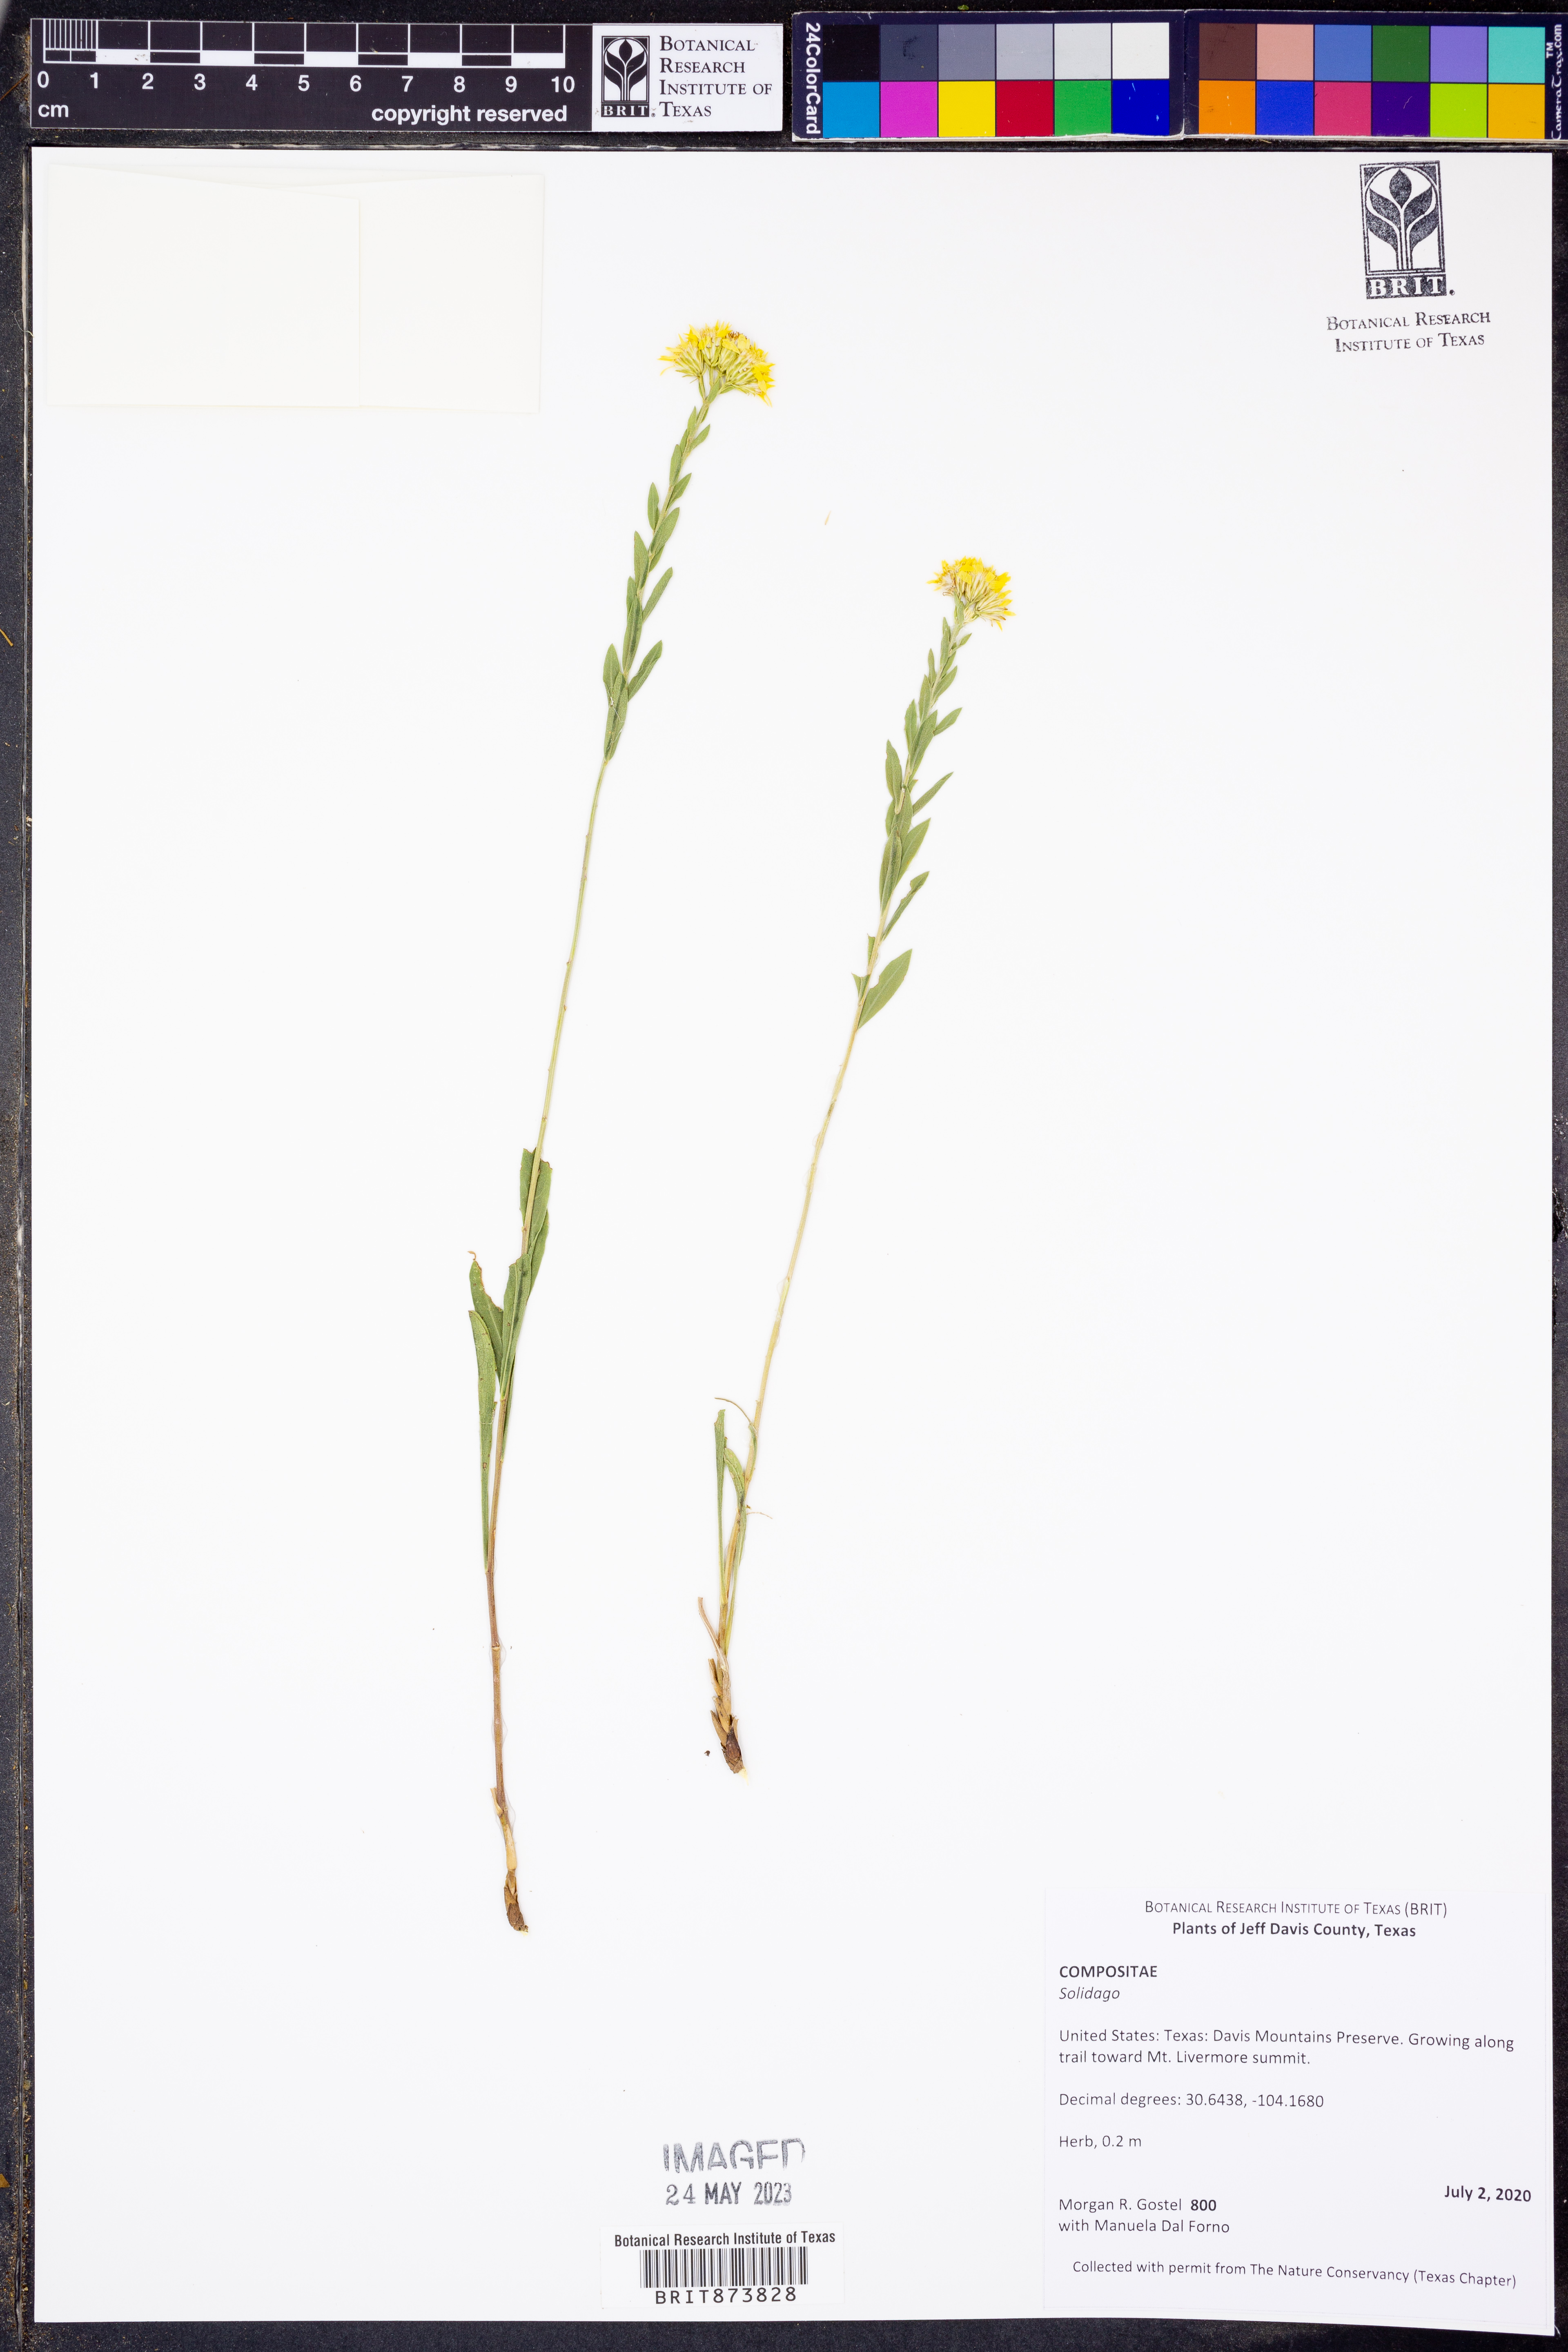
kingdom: Plantae
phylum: Tracheophyta
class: Magnoliopsida
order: Asterales
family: Asteraceae
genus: Solidago
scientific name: Solidago
